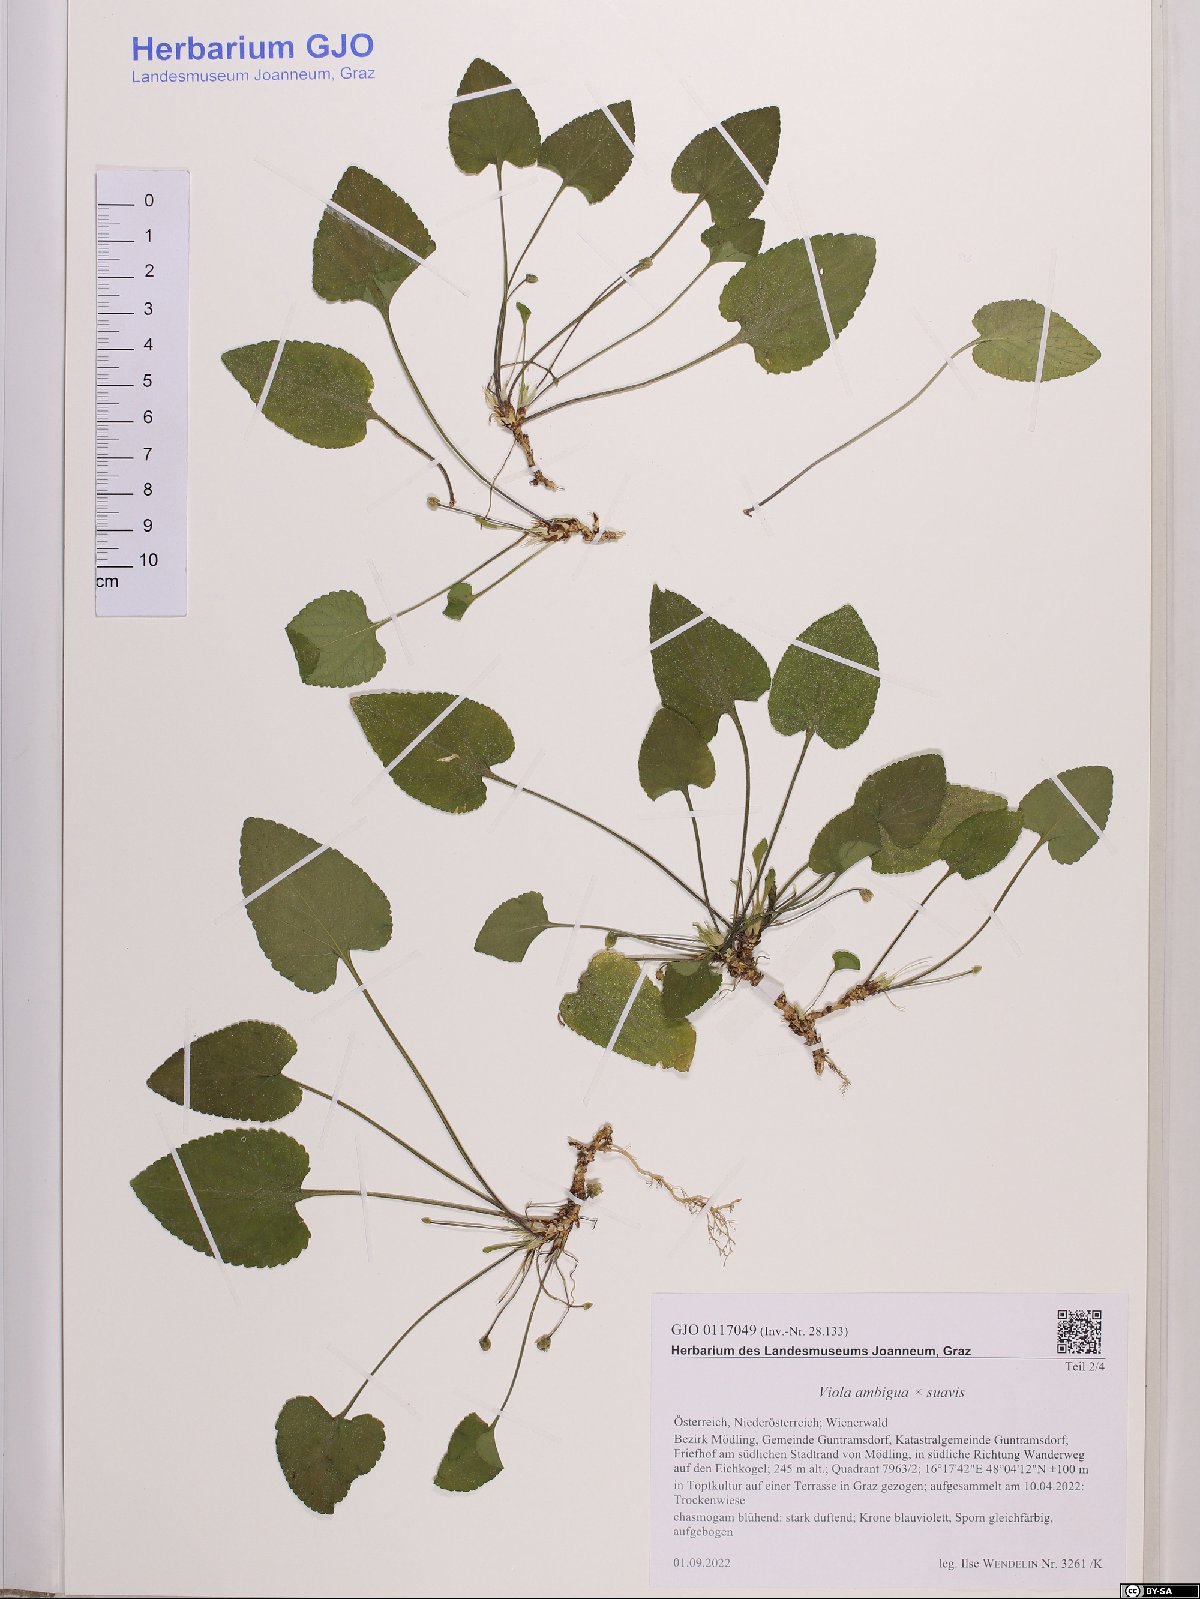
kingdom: Plantae
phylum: Tracheophyta
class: Magnoliopsida
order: Malpighiales
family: Violaceae
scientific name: Violaceae
